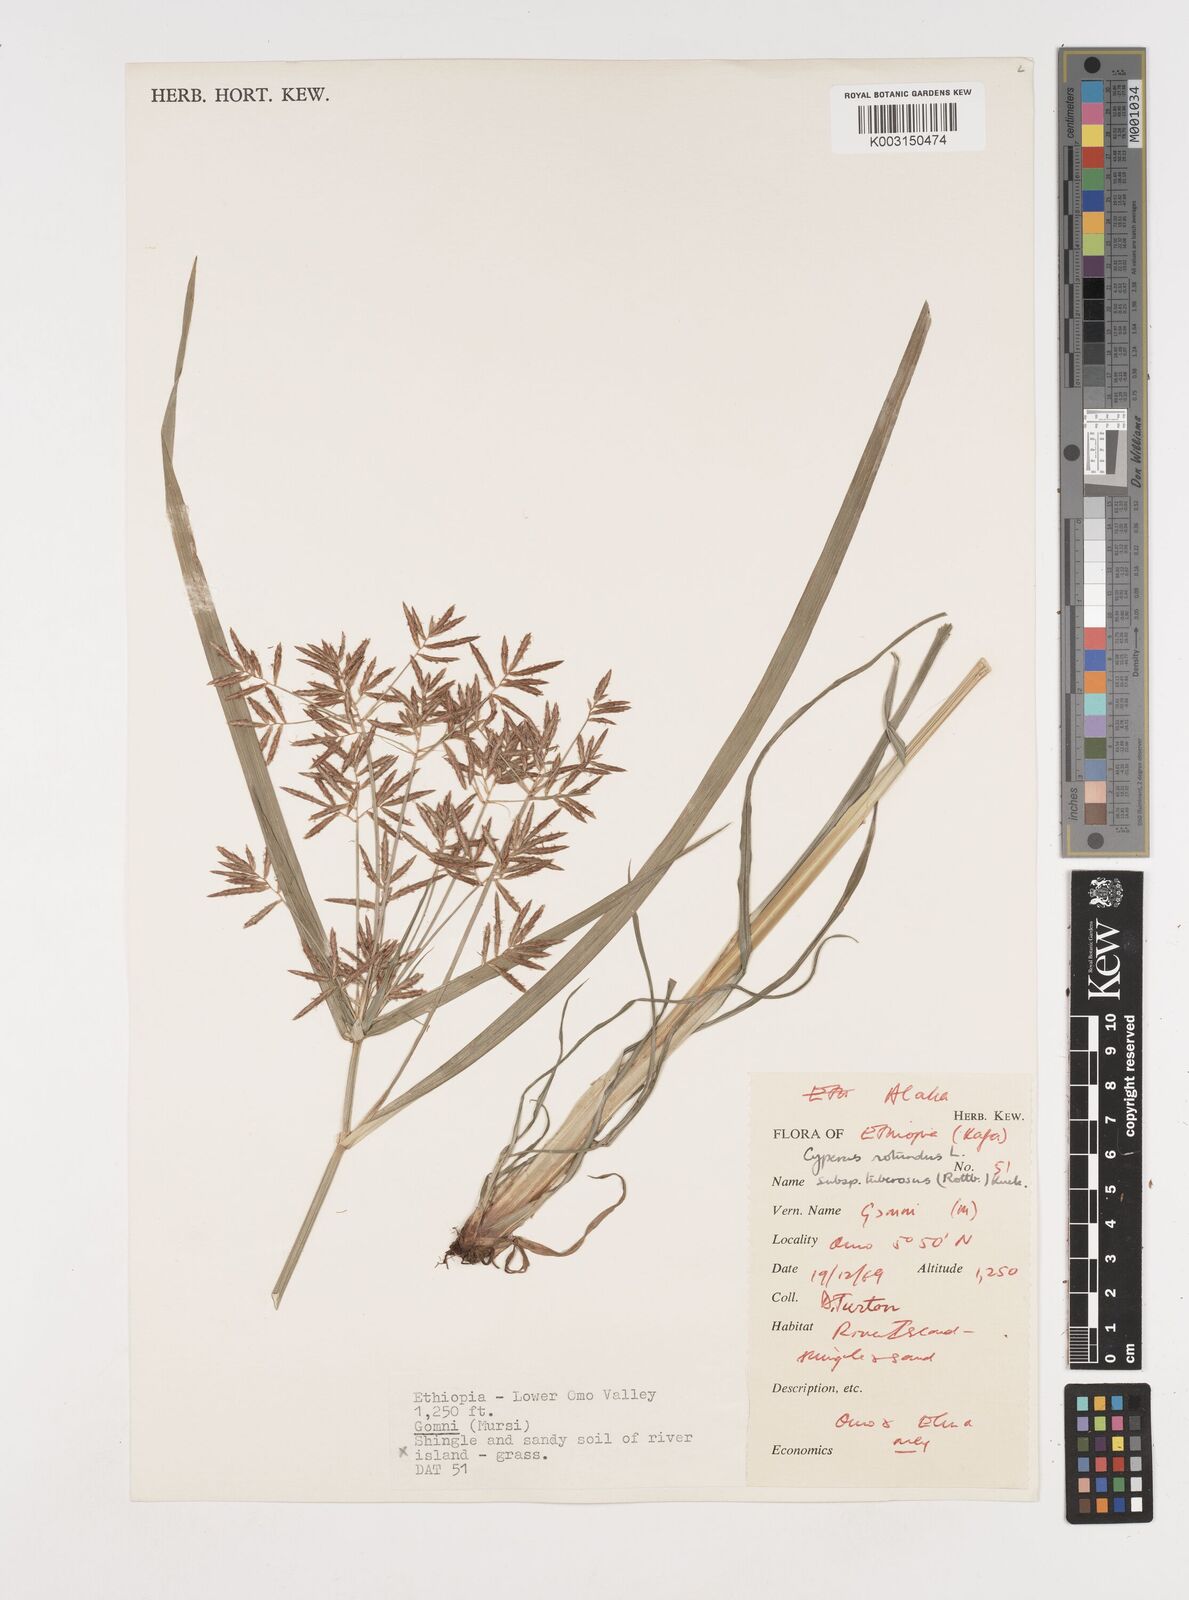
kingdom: Plantae
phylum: Tracheophyta
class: Liliopsida
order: Poales
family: Cyperaceae
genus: Cyperus
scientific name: Cyperus rotundus
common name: Nutgrass
